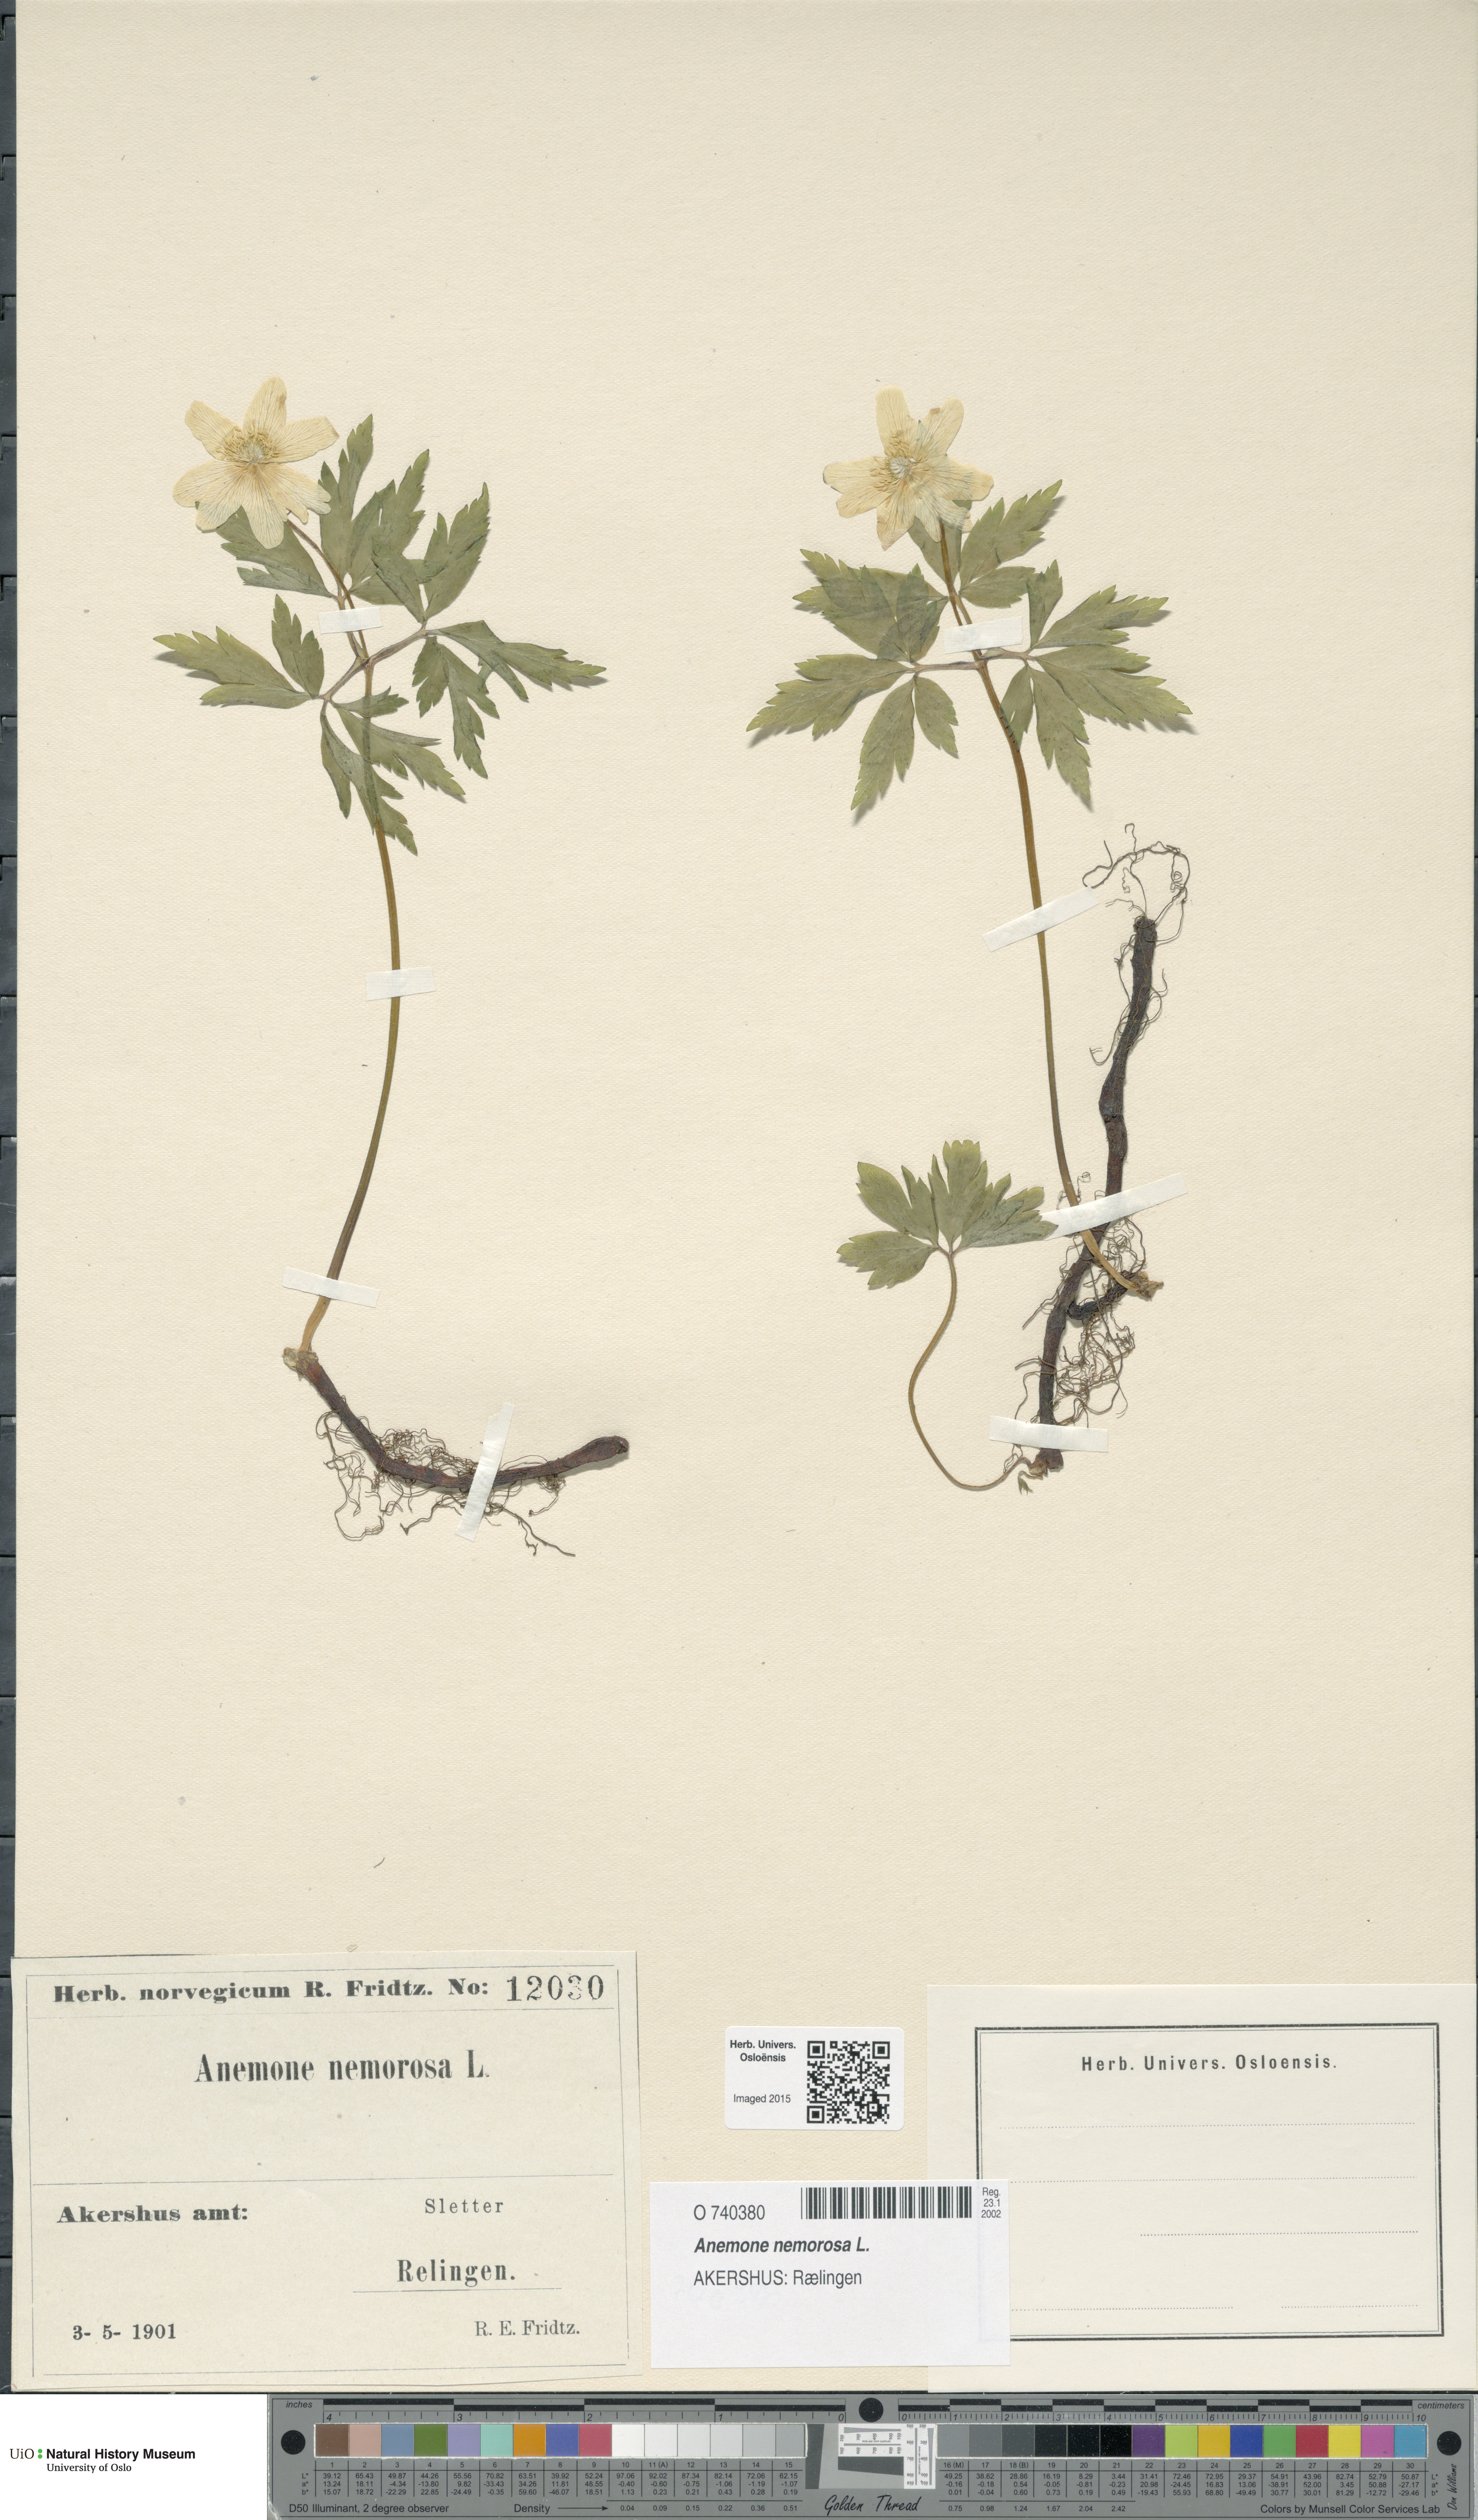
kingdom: Plantae
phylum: Tracheophyta
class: Magnoliopsida
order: Ranunculales
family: Ranunculaceae
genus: Anemone
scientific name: Anemone nemorosa
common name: Wood anemone
